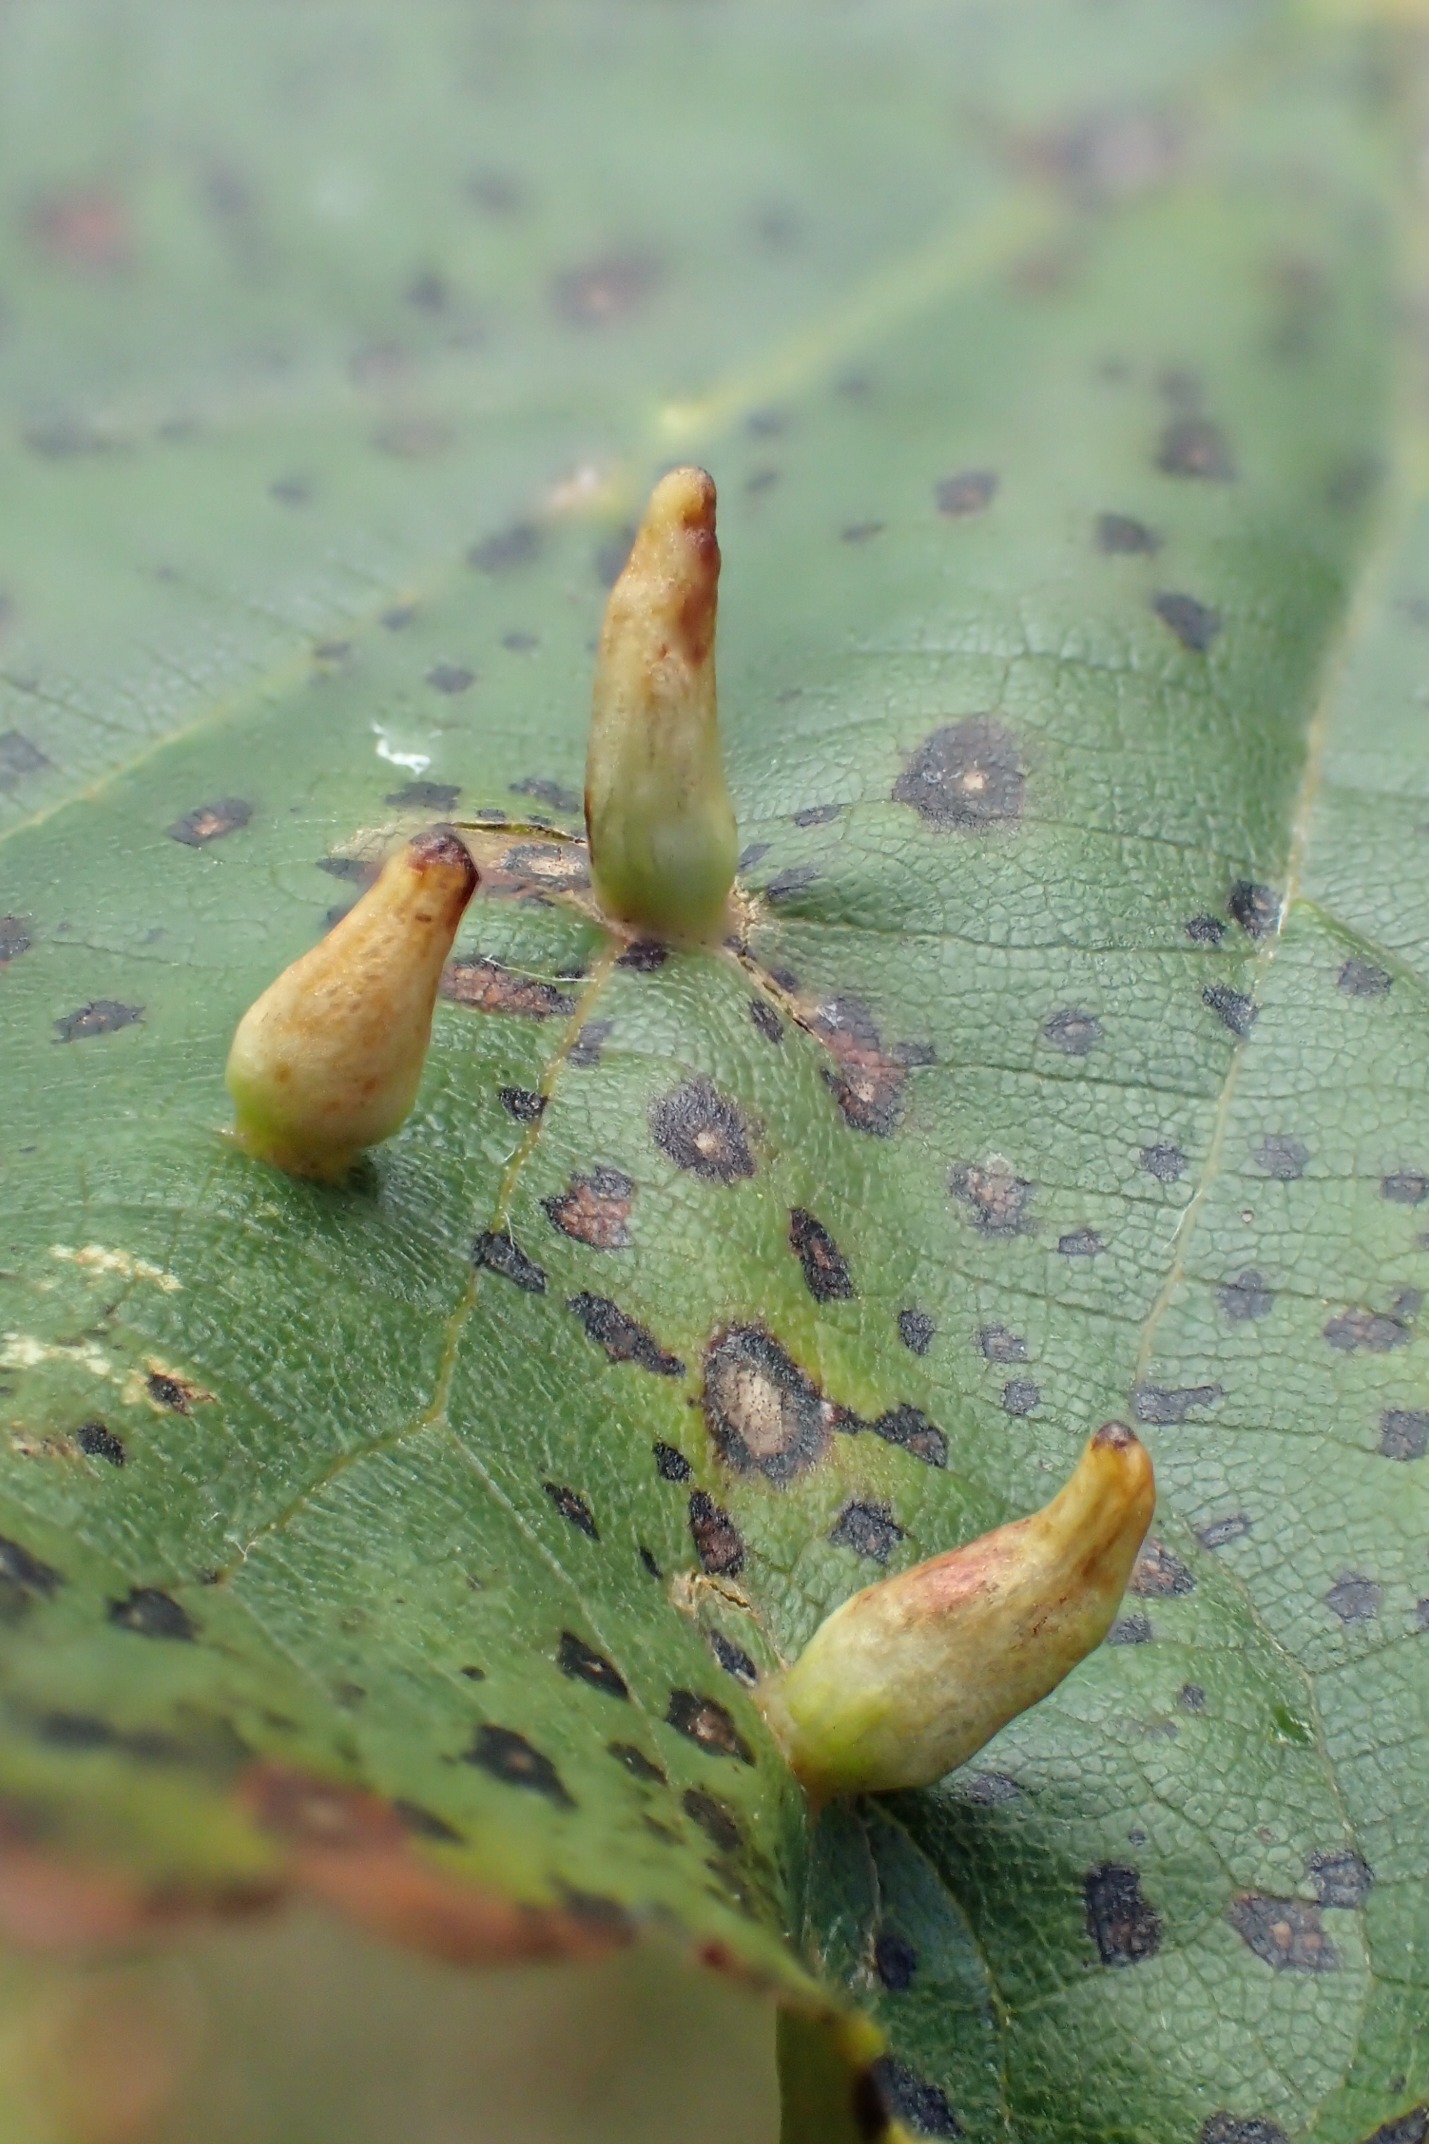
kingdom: Animalia
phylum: Arthropoda
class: Arachnida
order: Trombidiformes
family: Eriophyidae
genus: Eriophyes
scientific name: Eriophyes tiliae
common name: Lindepunggalmide
